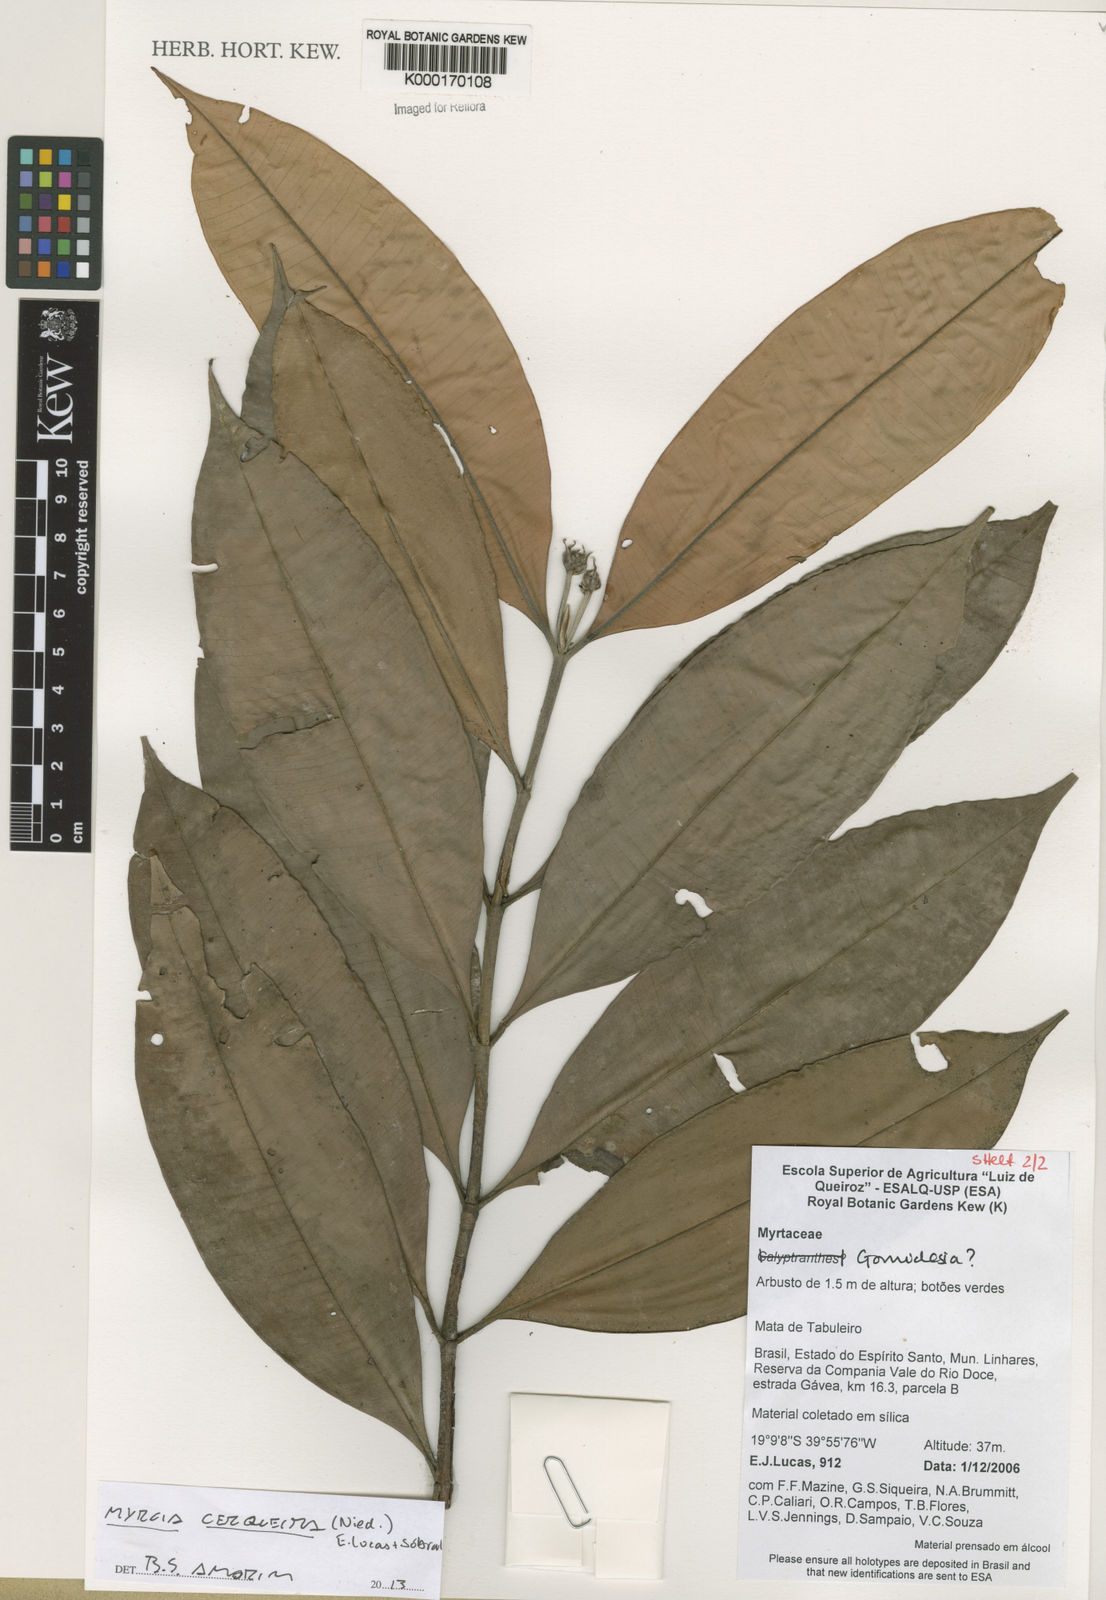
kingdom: Plantae
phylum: Tracheophyta
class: Magnoliopsida
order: Myrtales
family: Myrtaceae
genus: Myrcia
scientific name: Myrcia
